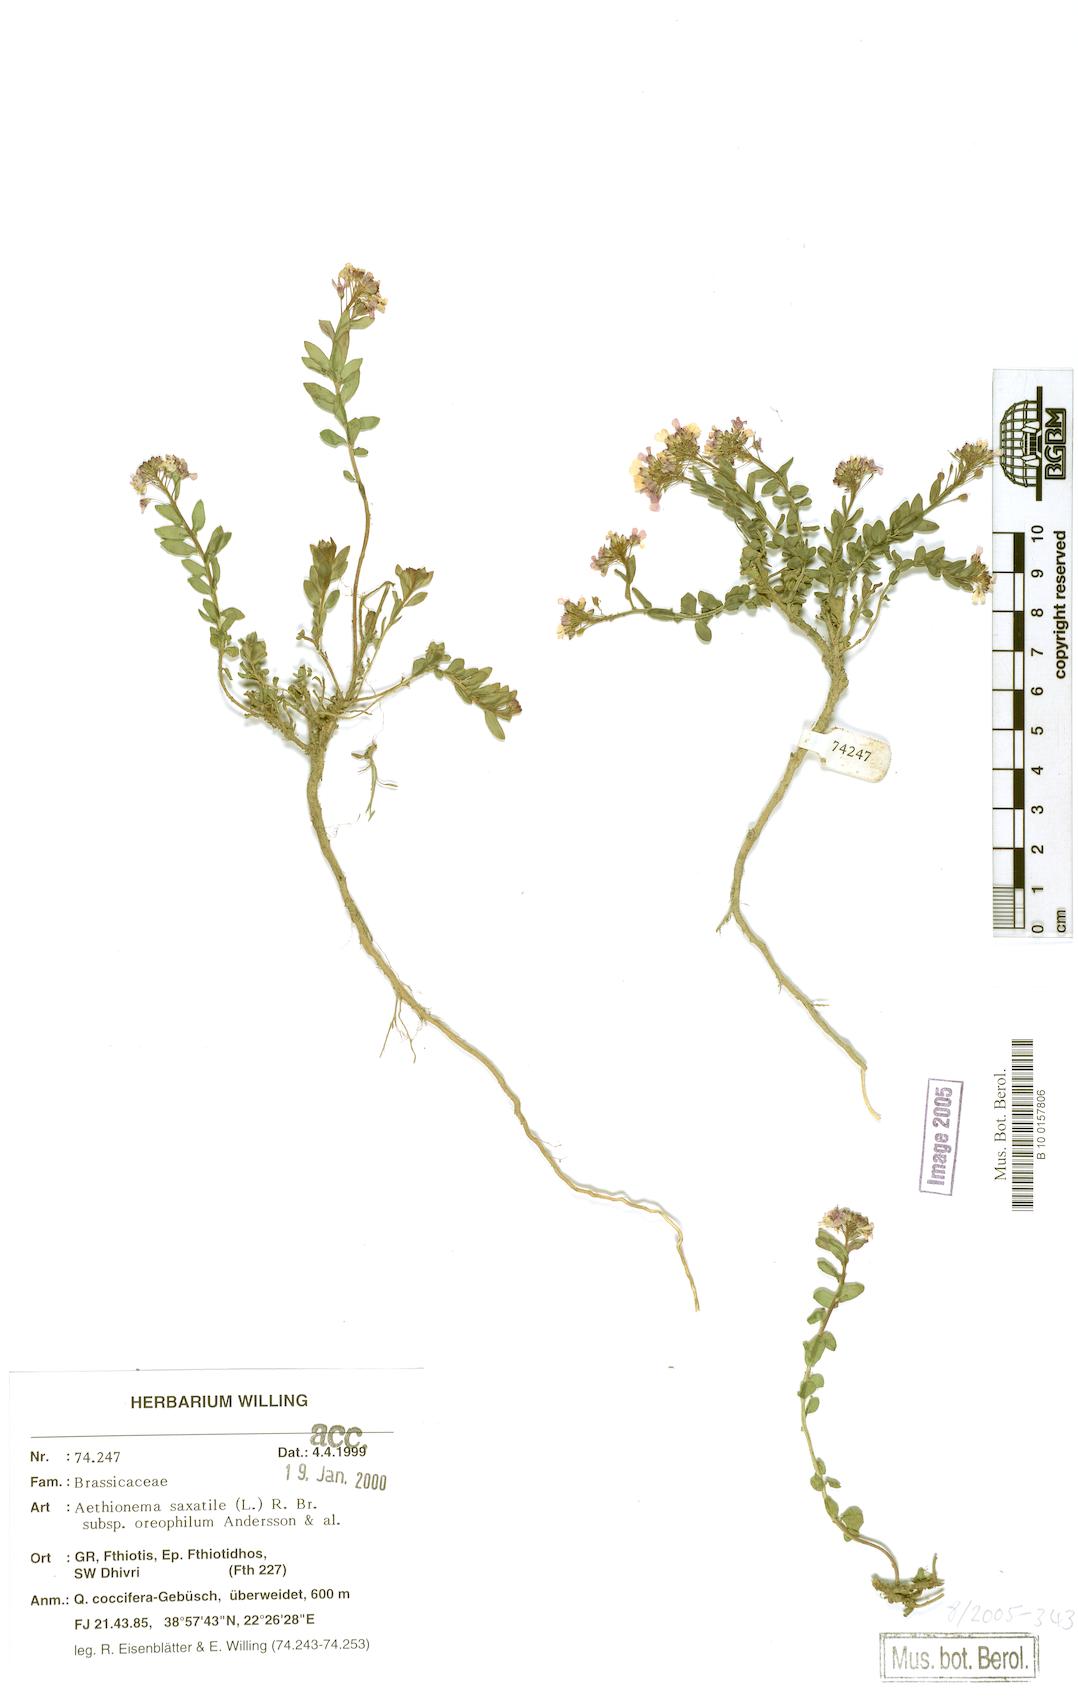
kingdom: Plantae
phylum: Tracheophyta
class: Magnoliopsida
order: Brassicales
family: Brassicaceae
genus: Aethionema
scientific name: Aethionema saxatile
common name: Burnt candytuft
